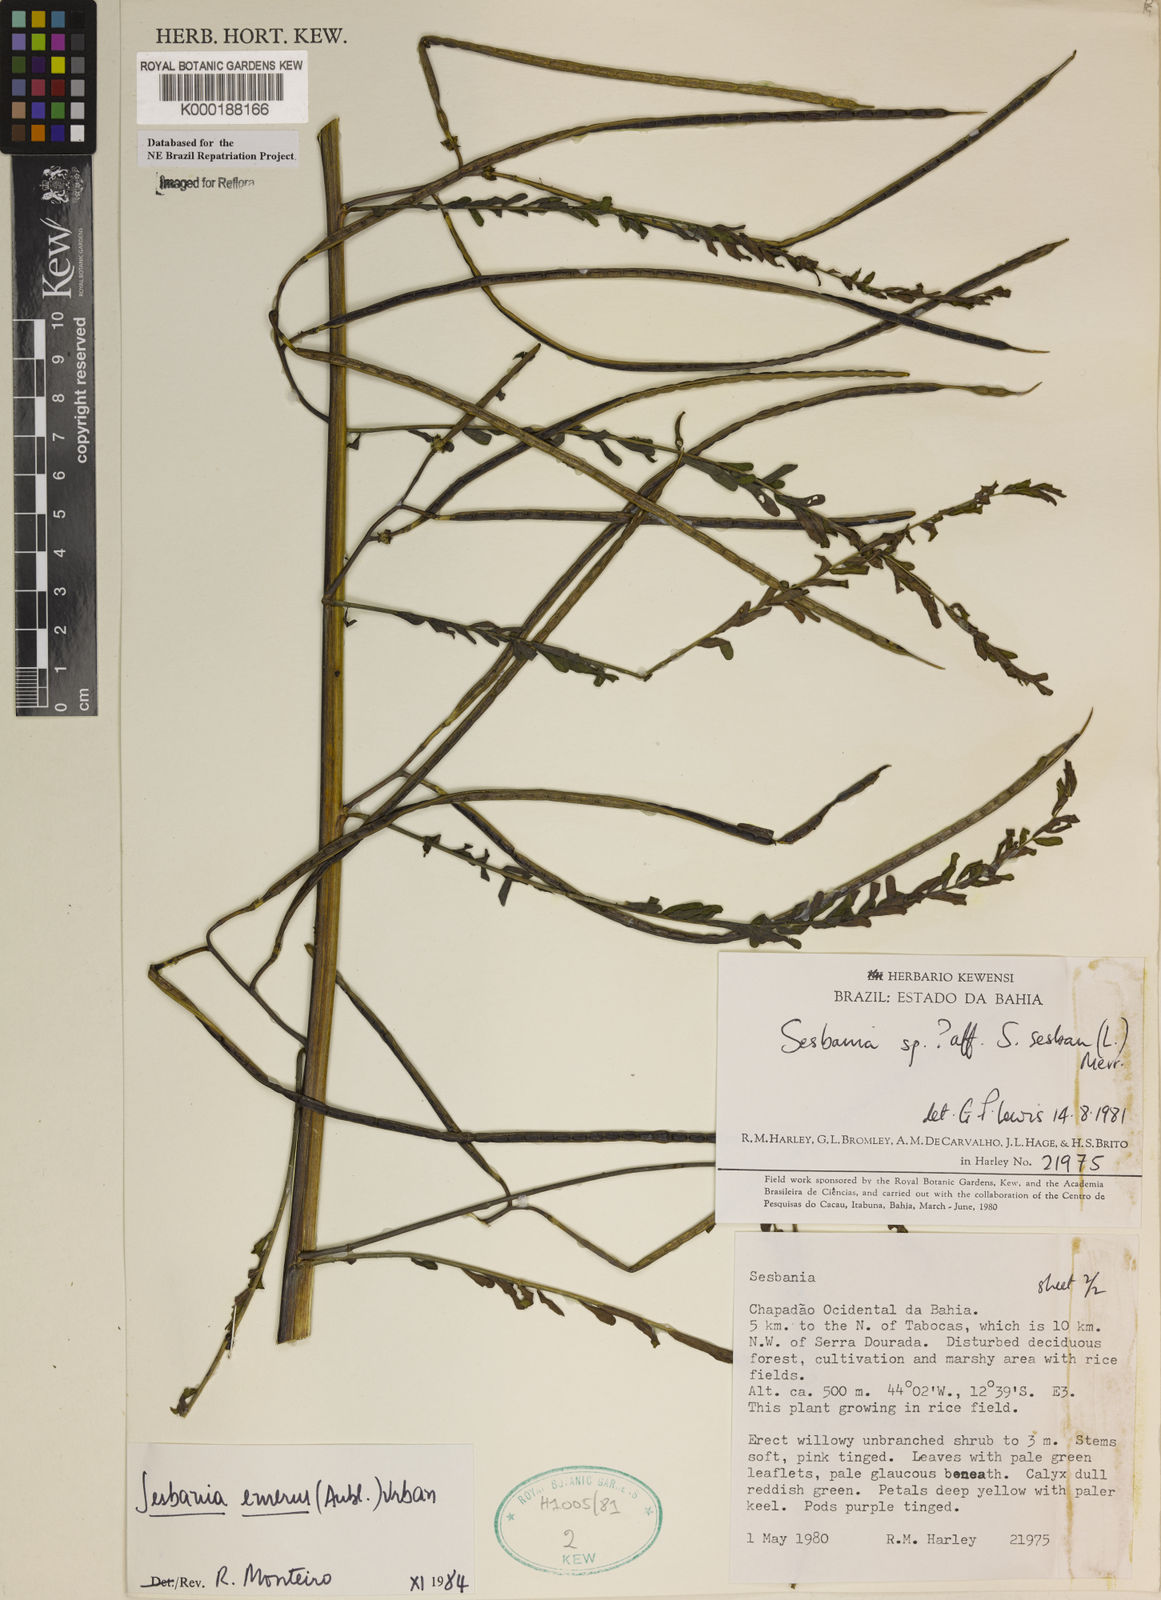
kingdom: Plantae
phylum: Tracheophyta
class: Magnoliopsida
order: Fabales
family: Fabaceae
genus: Sesbania
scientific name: Sesbania herbacea
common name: Bigpod sesbania
